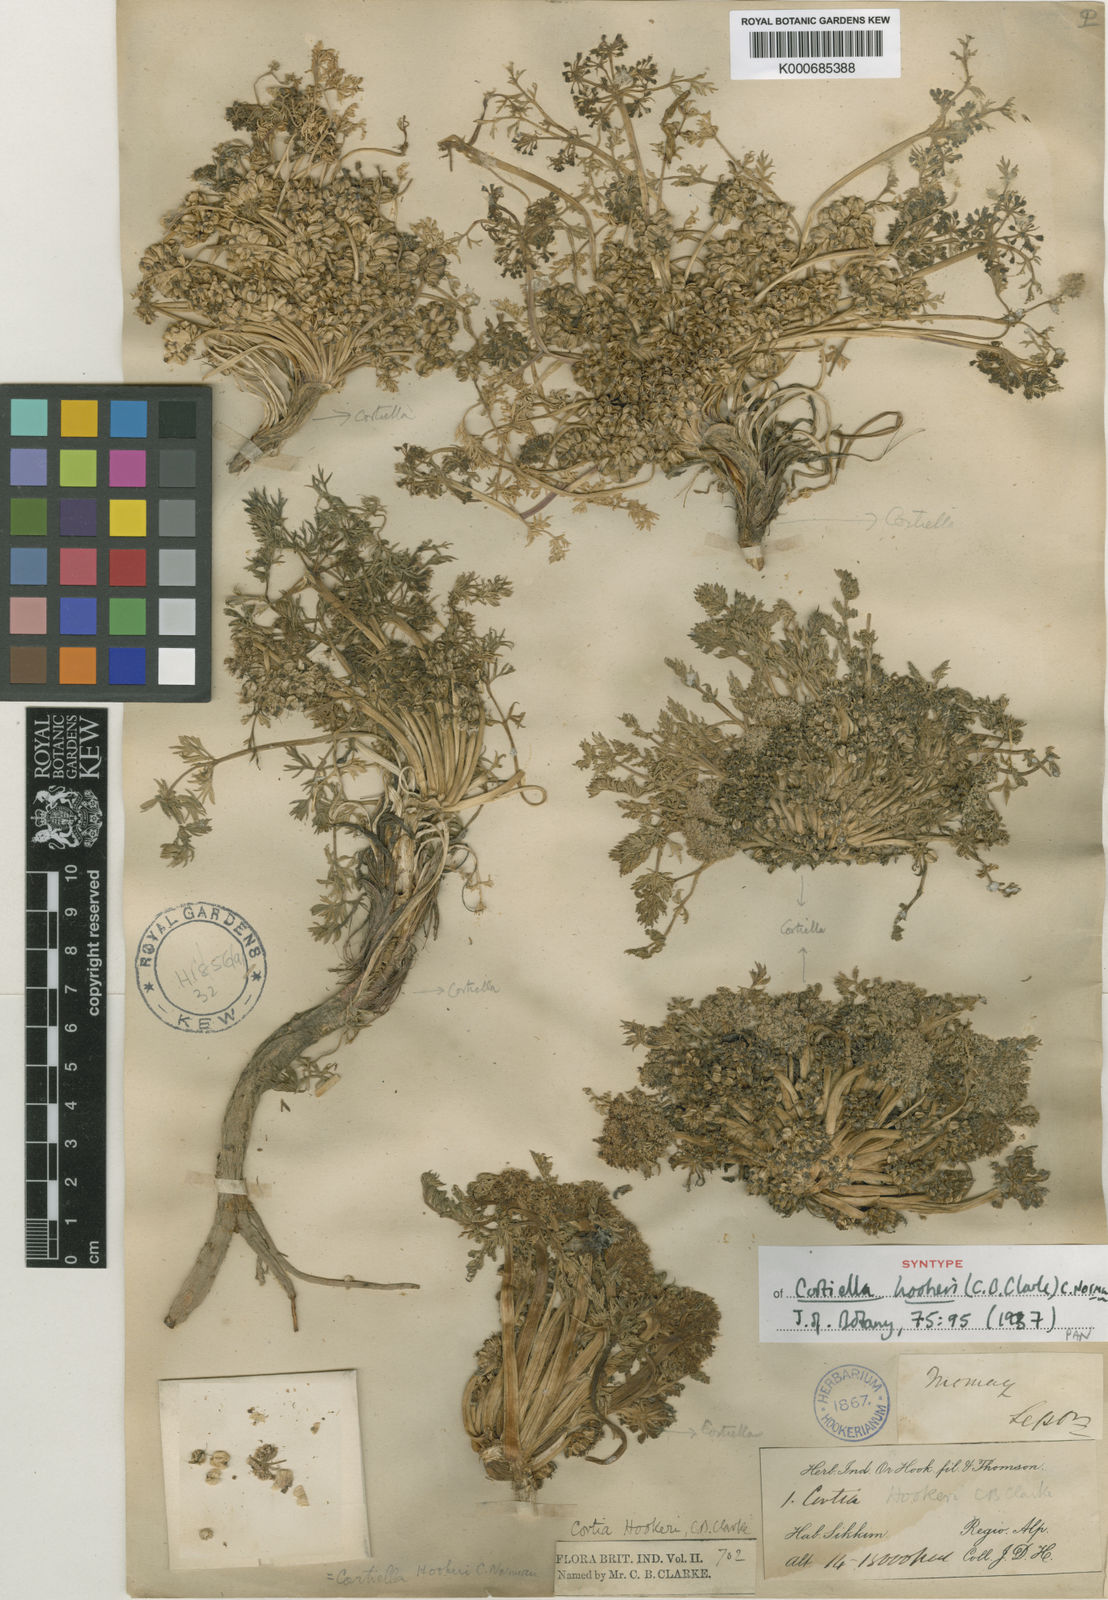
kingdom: Plantae
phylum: Tracheophyta
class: Magnoliopsida
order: Apiales
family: Apiaceae
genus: Cortiella
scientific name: Cortiella hookeri
